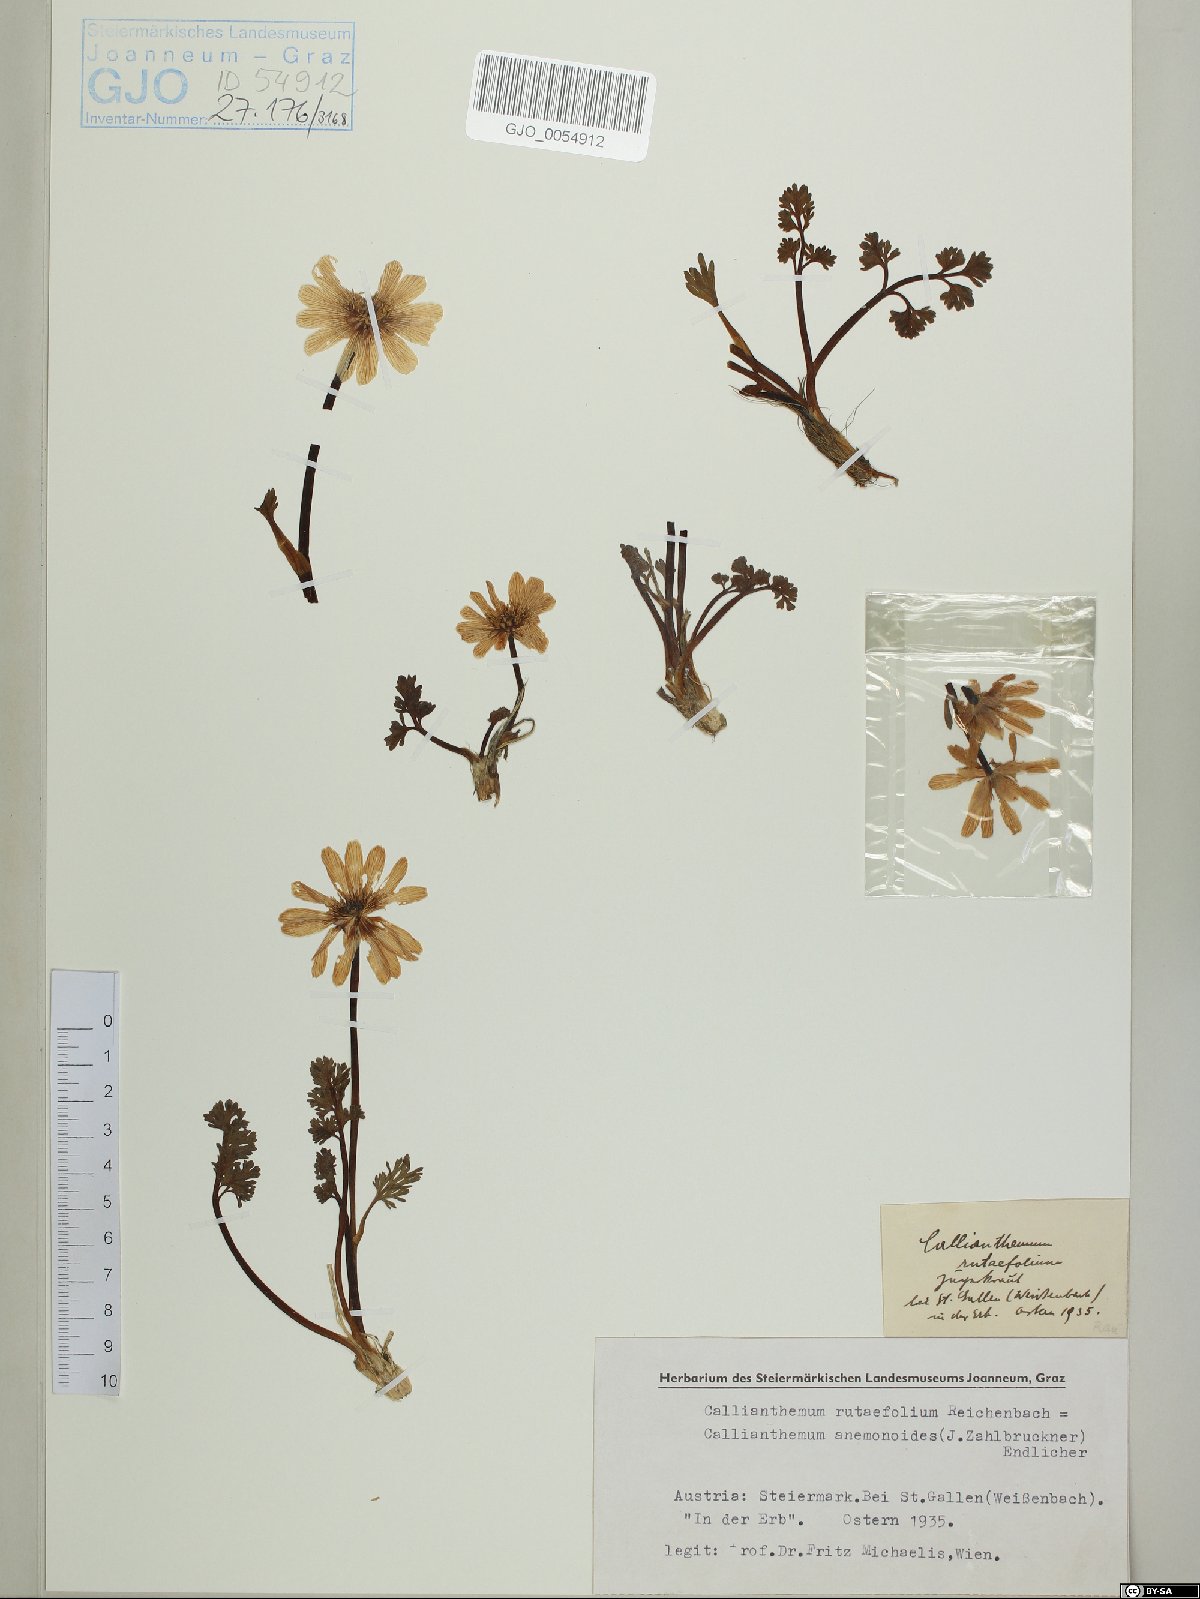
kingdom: Plantae
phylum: Tracheophyta
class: Magnoliopsida
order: Ranunculales
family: Ranunculaceae
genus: Callianthemum
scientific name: Callianthemum anemonoides
